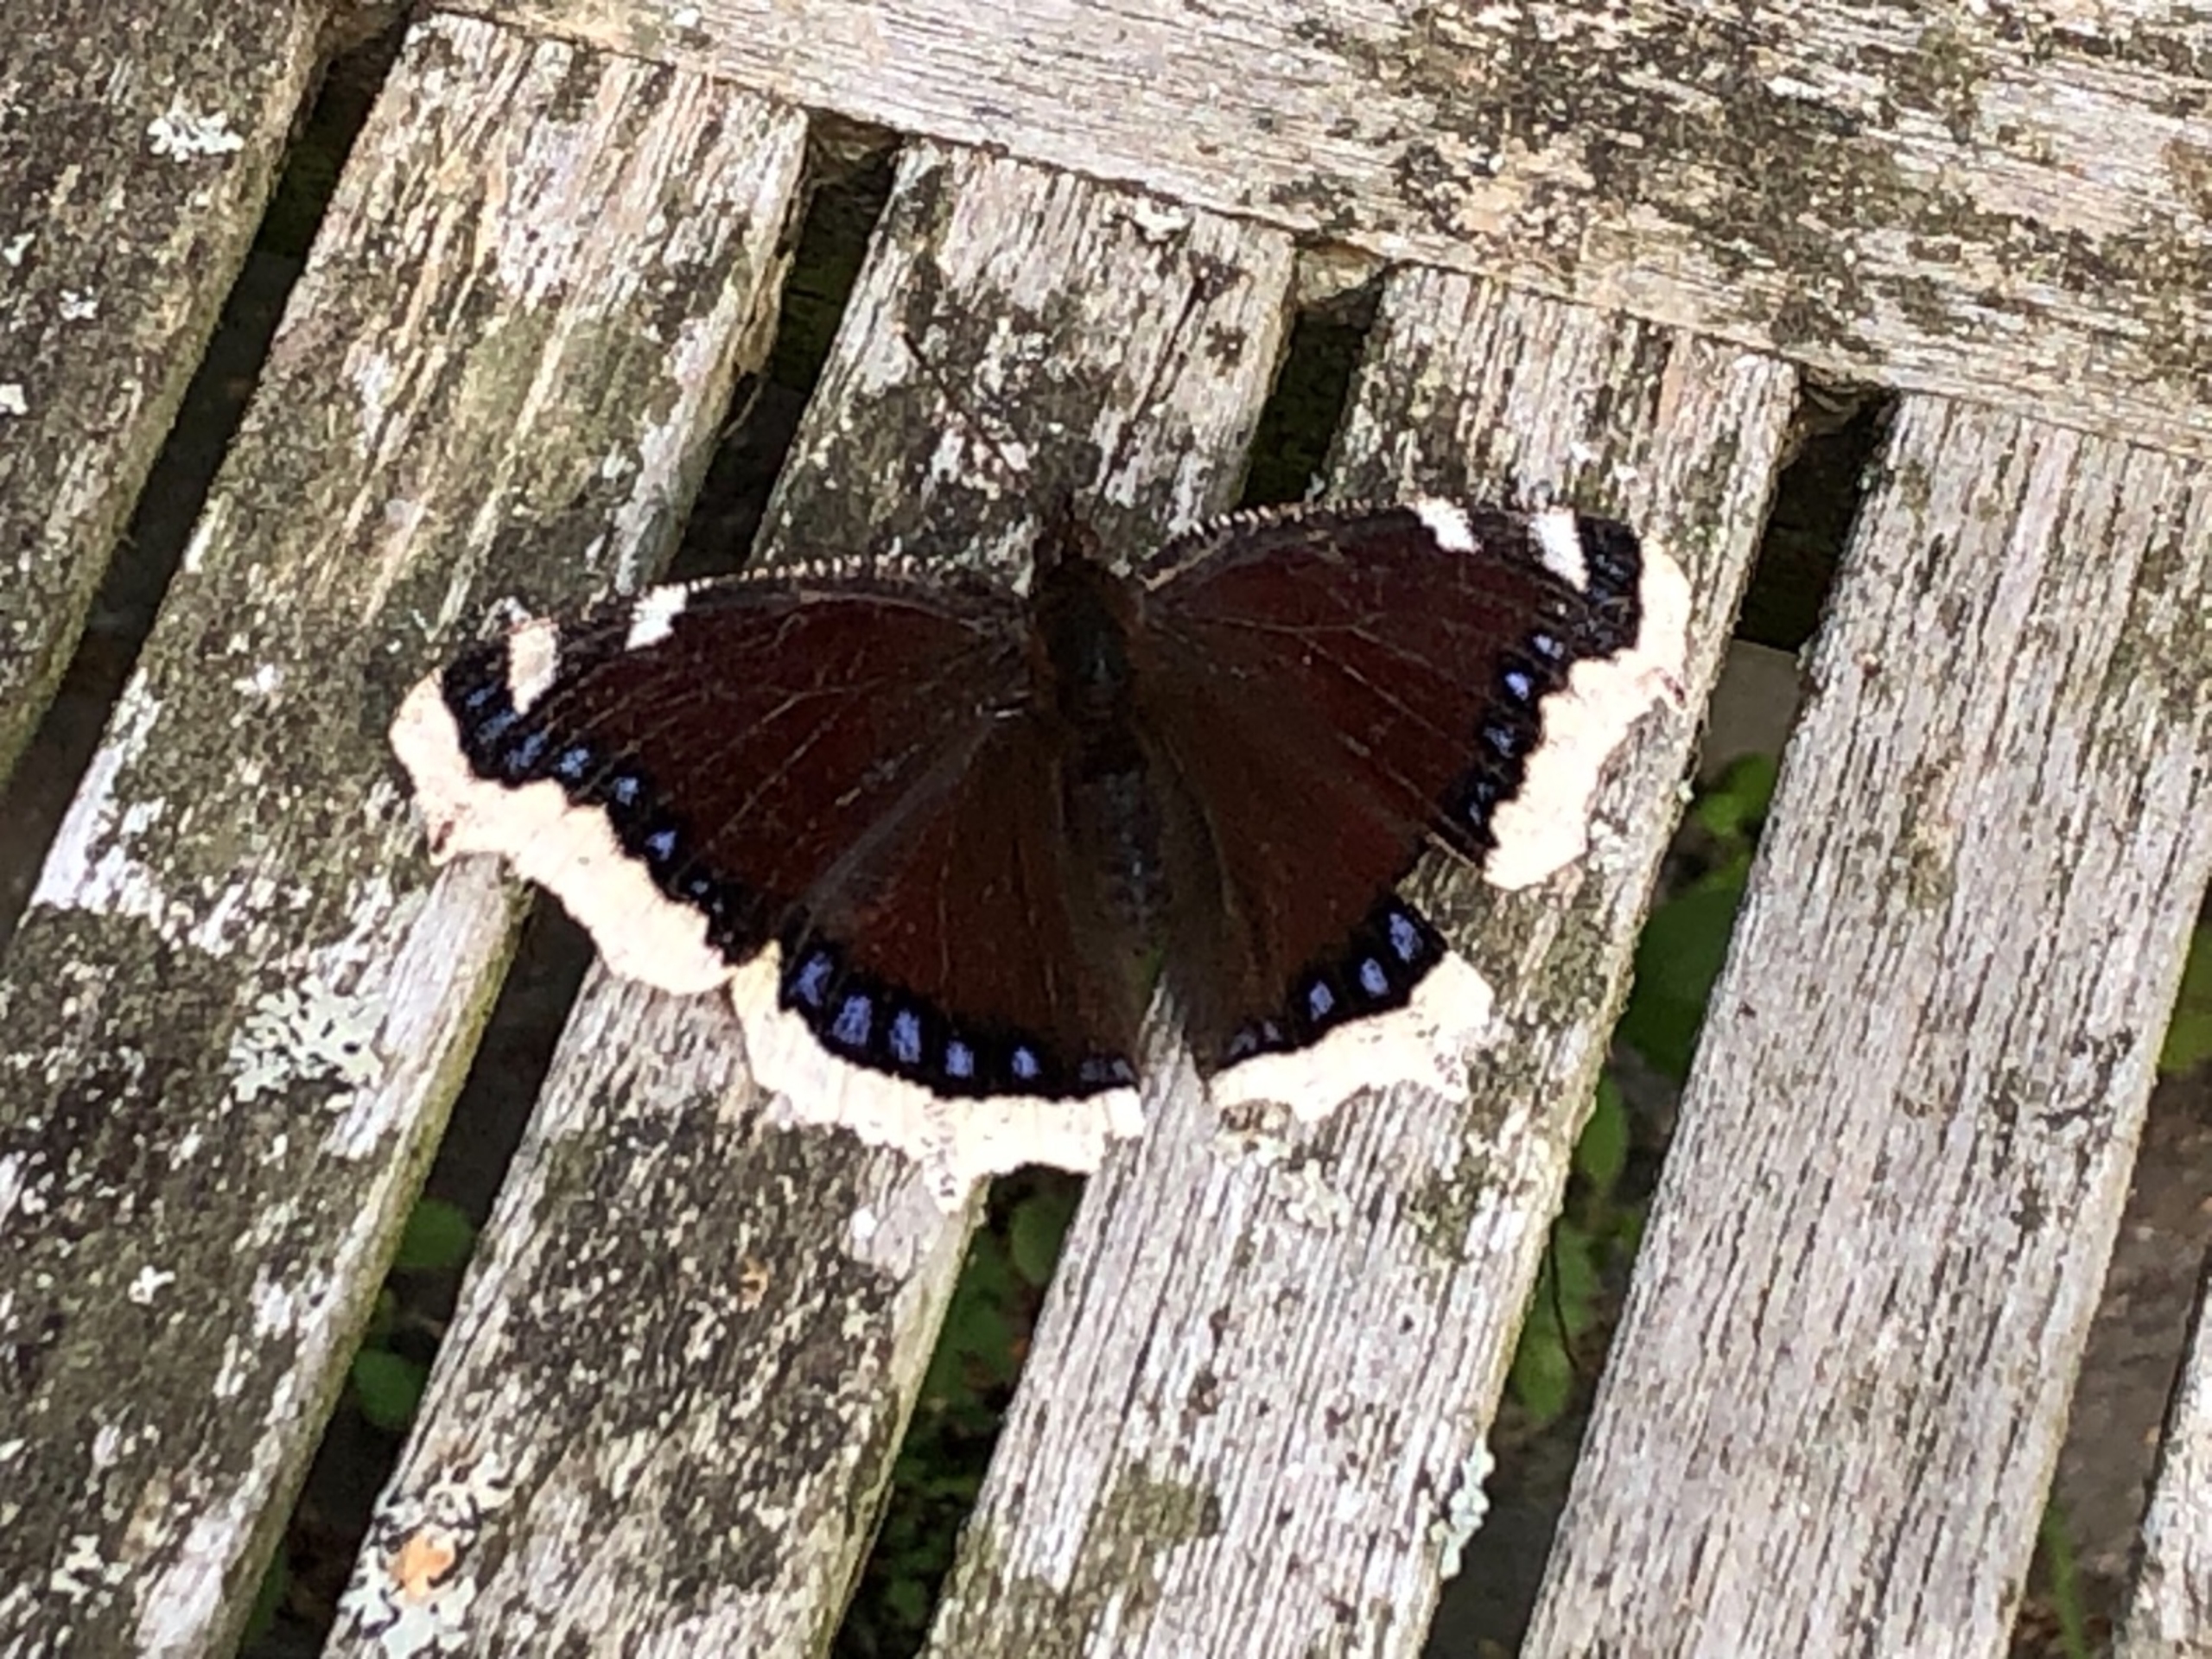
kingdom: Animalia
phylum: Arthropoda
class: Insecta
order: Lepidoptera
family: Nymphalidae
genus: Nymphalis
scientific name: Nymphalis antiopa
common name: Sørgekåbe
